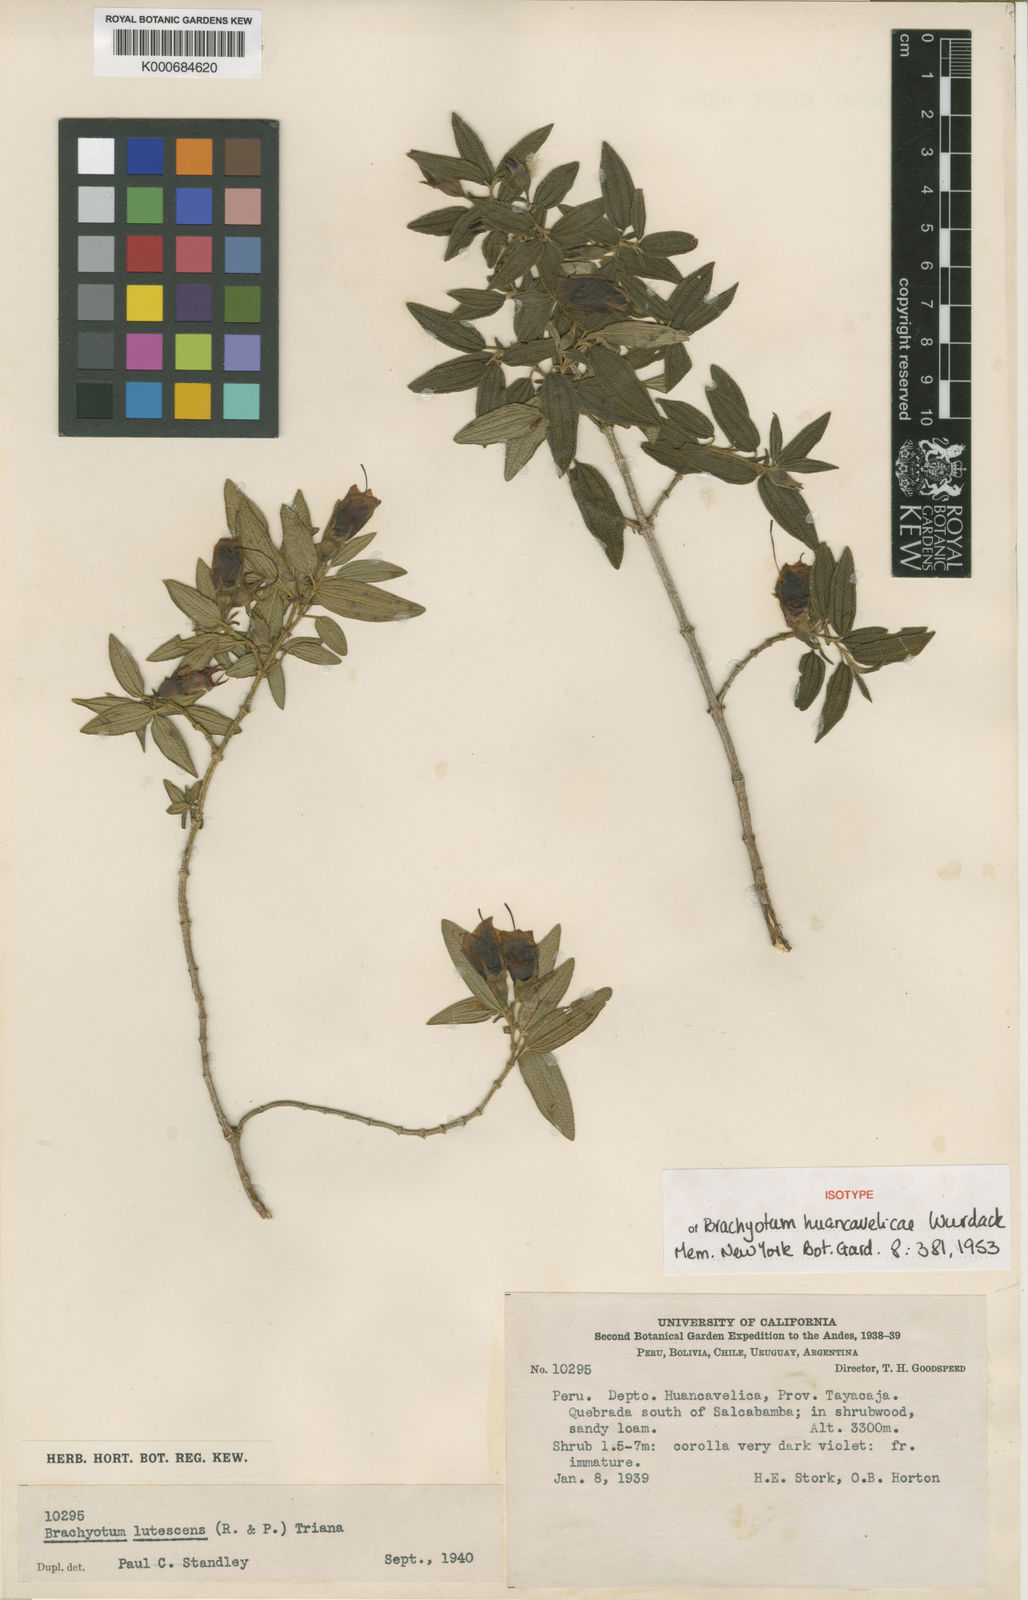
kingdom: Plantae
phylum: Tracheophyta
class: Magnoliopsida
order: Myrtales
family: Melastomataceae
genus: Brachyotum
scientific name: Brachyotum huancavelicae
